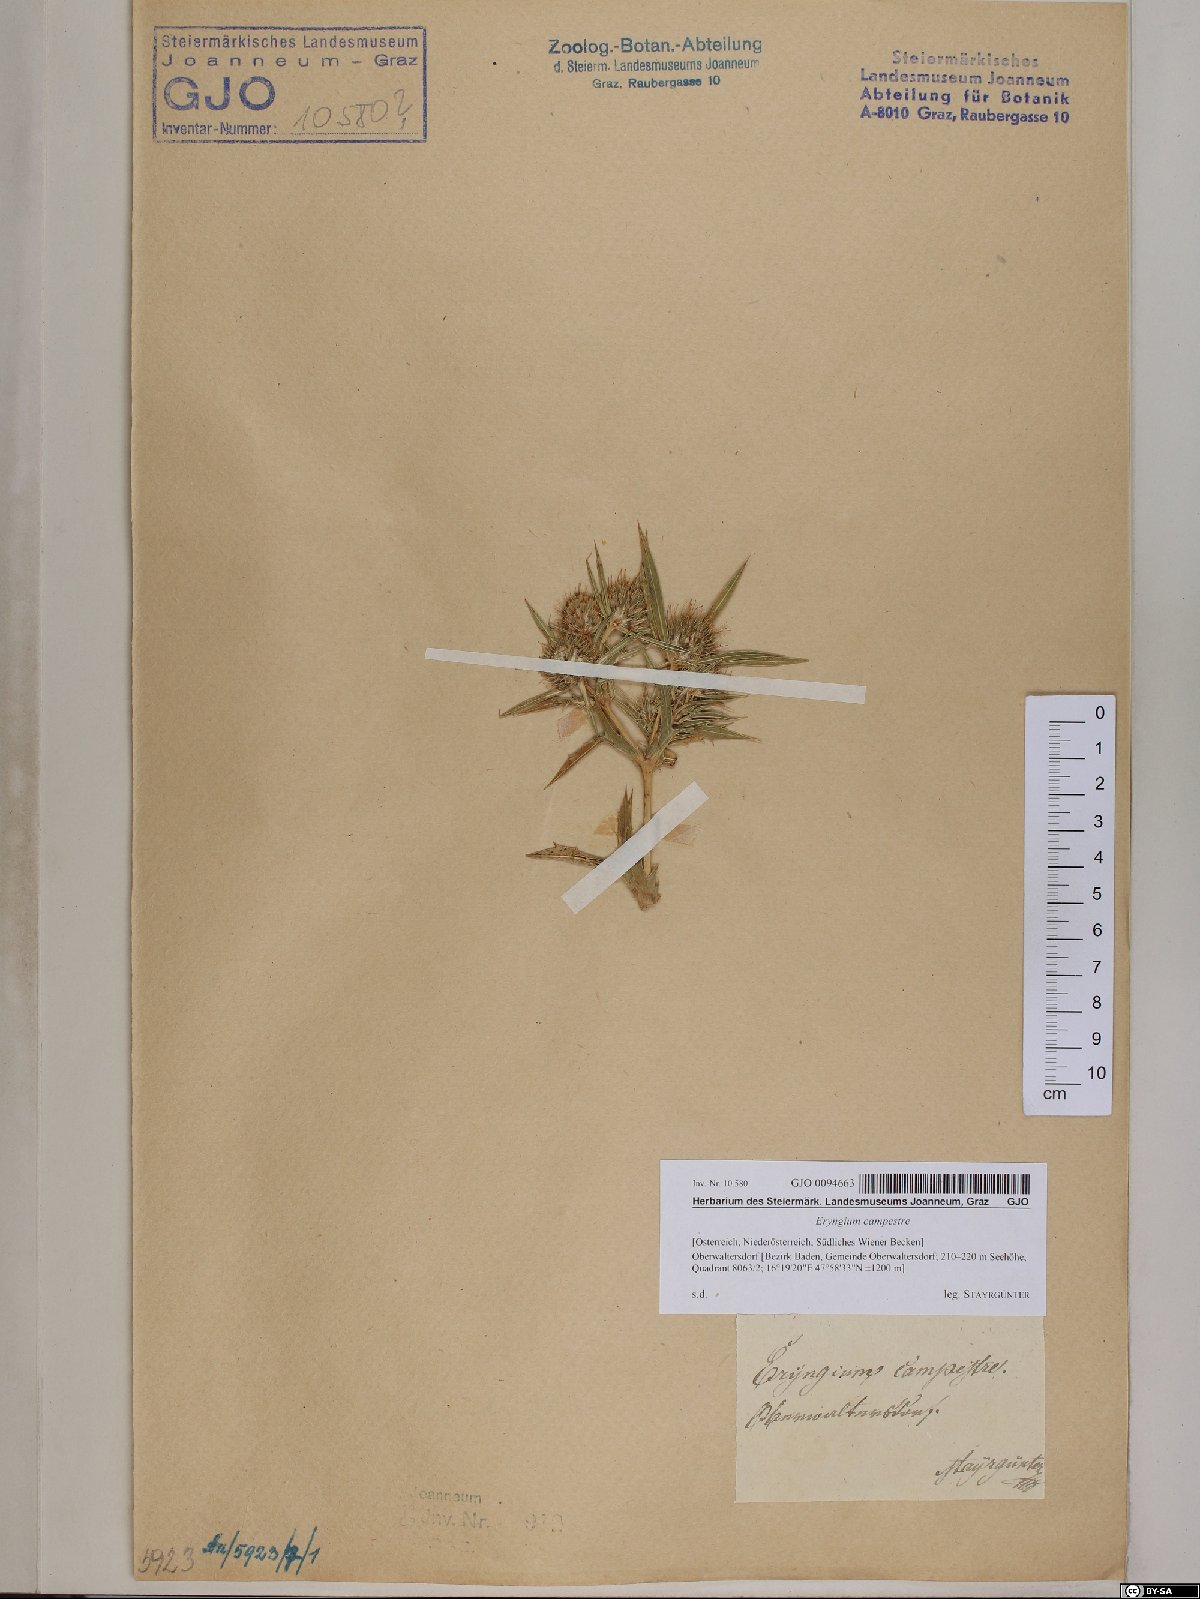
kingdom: Plantae
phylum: Tracheophyta
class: Magnoliopsida
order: Apiales
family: Apiaceae
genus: Eryngium
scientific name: Eryngium campestre
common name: Field eryngo
